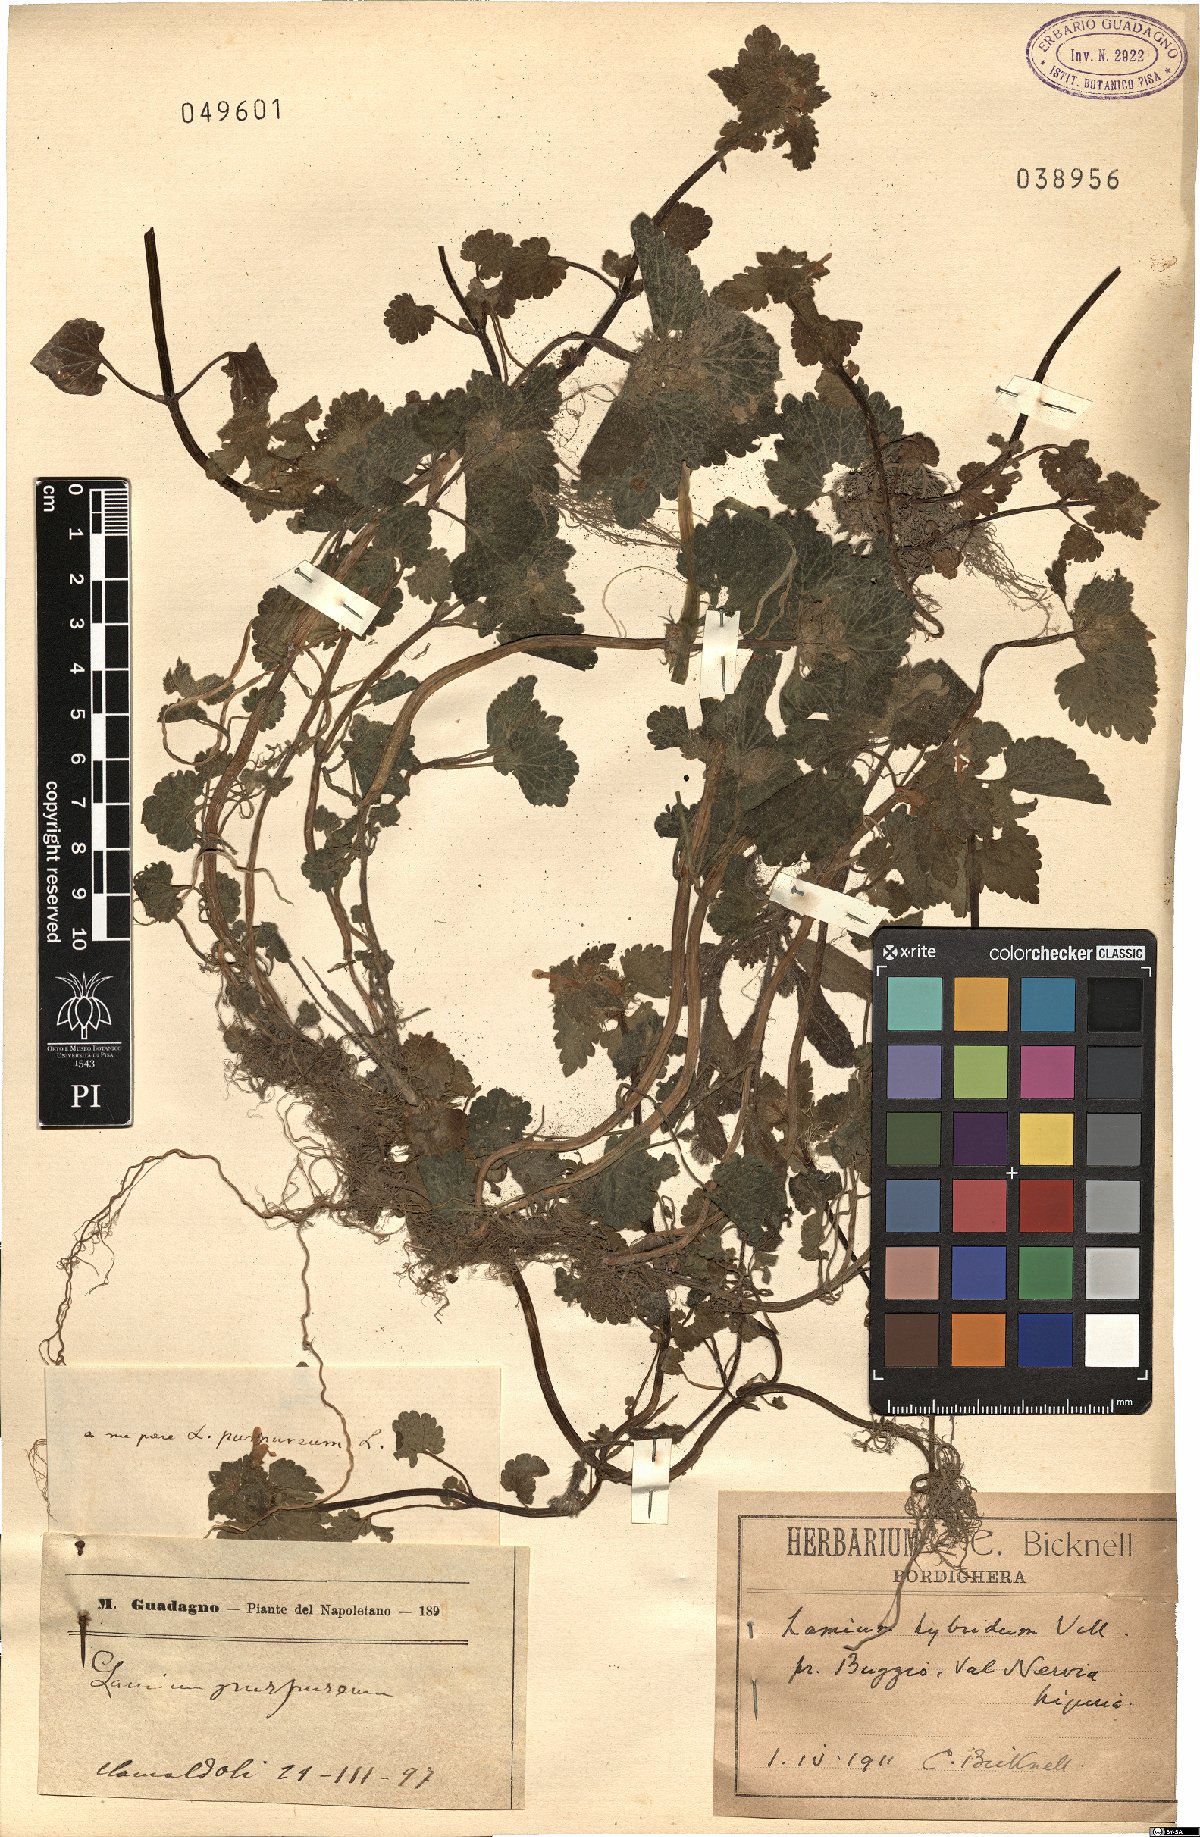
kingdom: Plantae
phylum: Tracheophyta
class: Magnoliopsida
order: Lamiales
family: Lamiaceae
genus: Lamium
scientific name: Lamium purpureum
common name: Red dead-nettle
